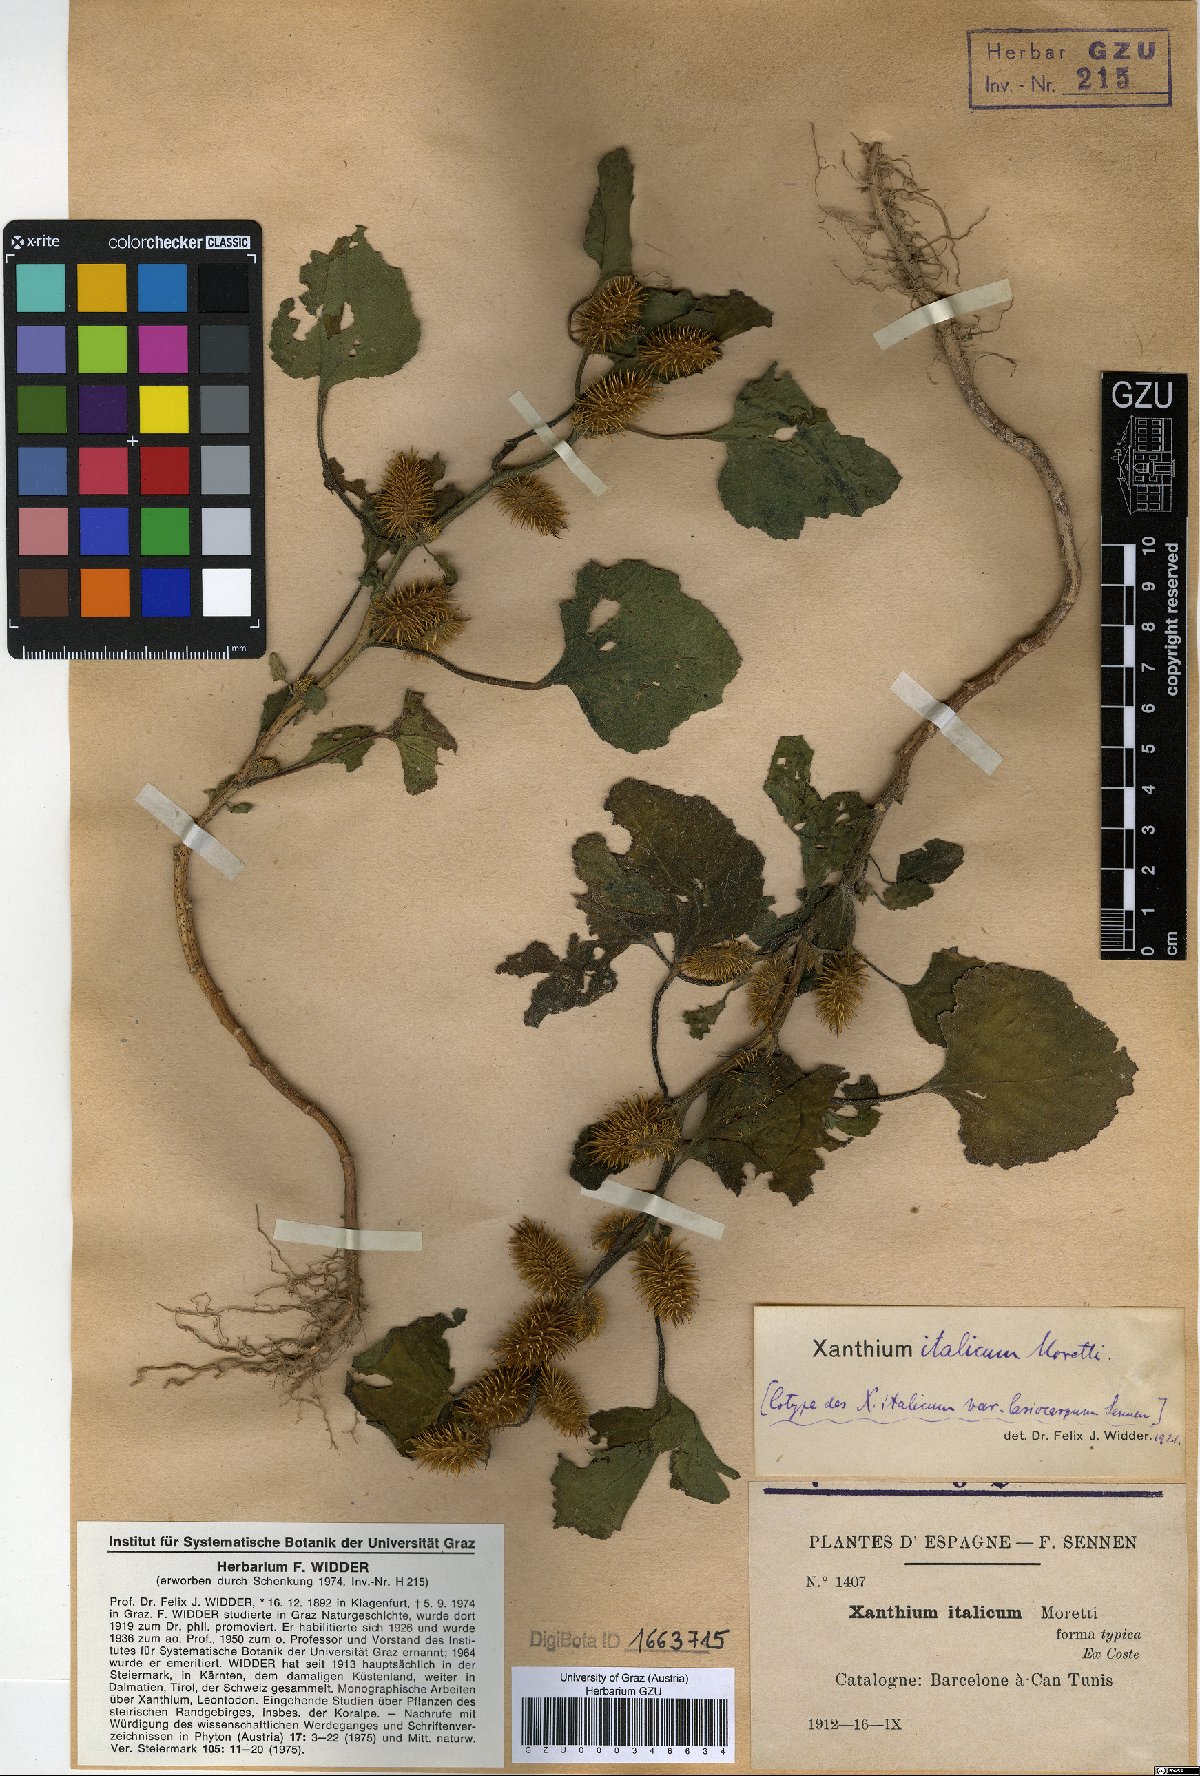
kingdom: Plantae
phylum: Tracheophyta
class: Magnoliopsida
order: Asterales
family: Asteraceae
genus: Xanthium
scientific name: Xanthium orientale
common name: Californian burr
